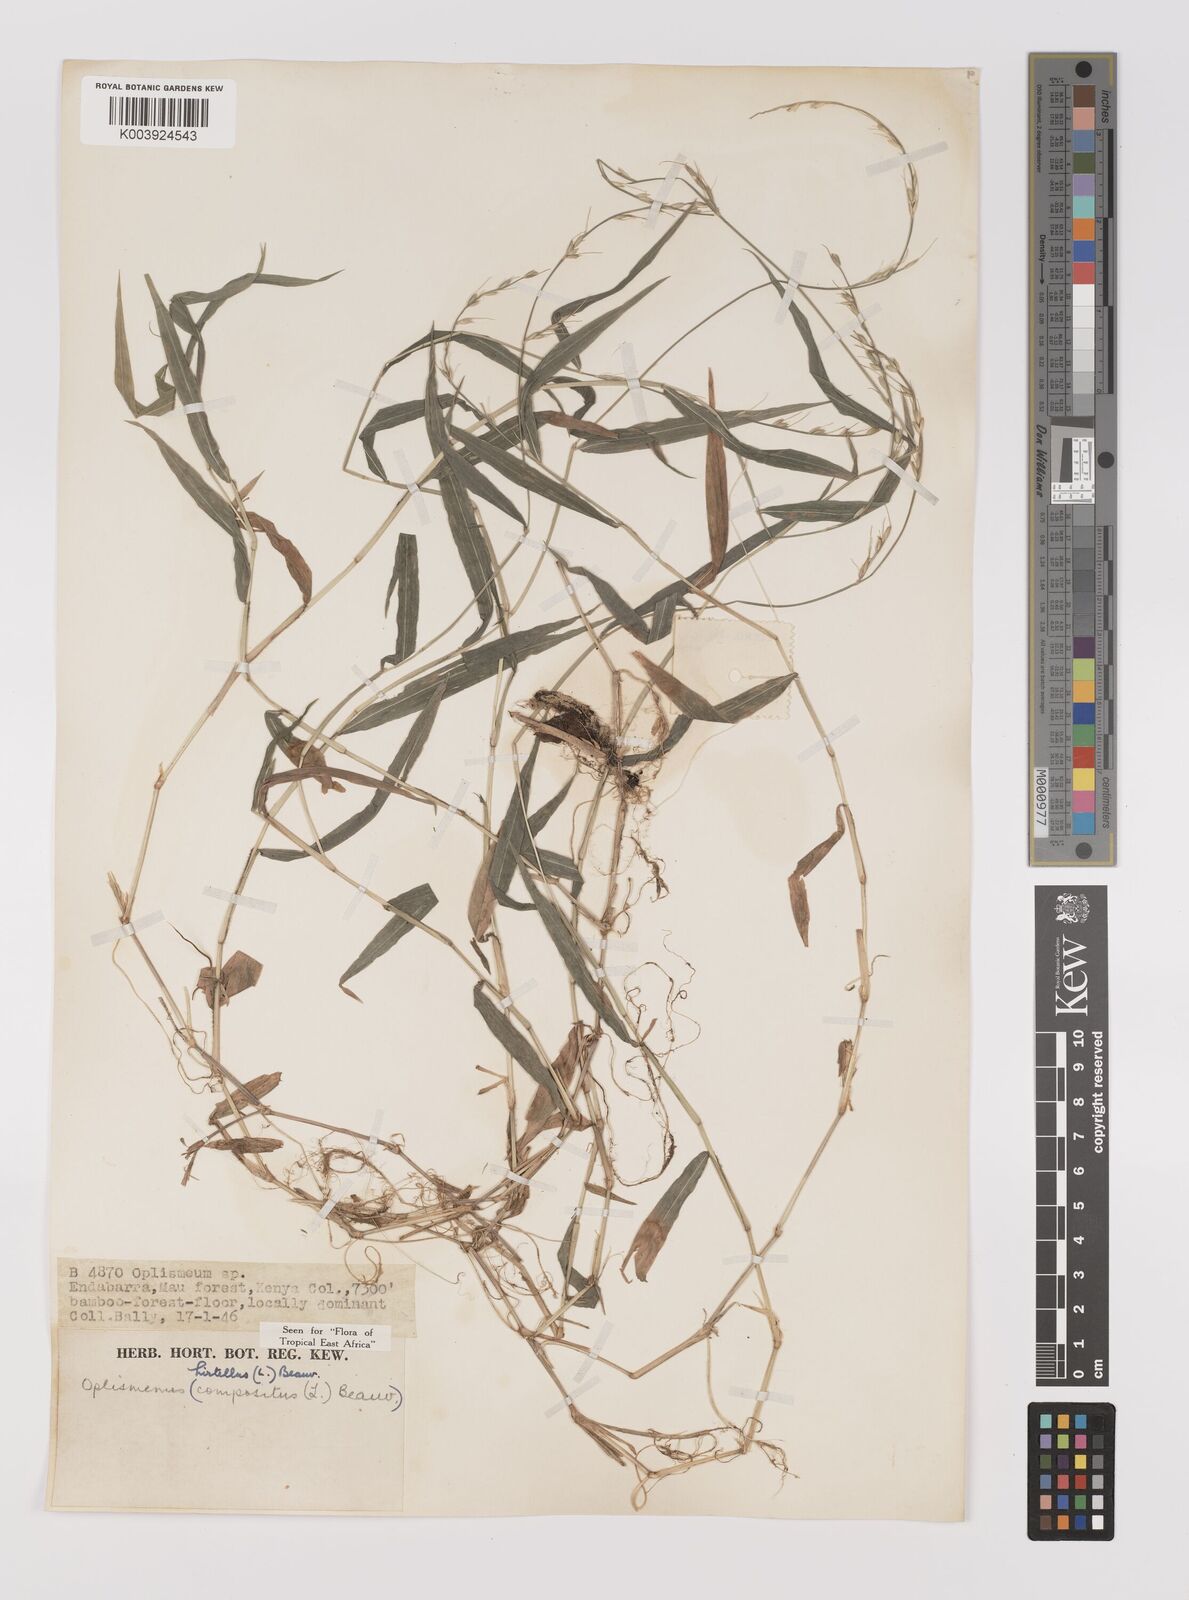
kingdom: Plantae
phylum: Tracheophyta
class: Liliopsida
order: Poales
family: Poaceae
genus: Oplismenus
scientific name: Oplismenus hirtellus
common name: Basketgrass
